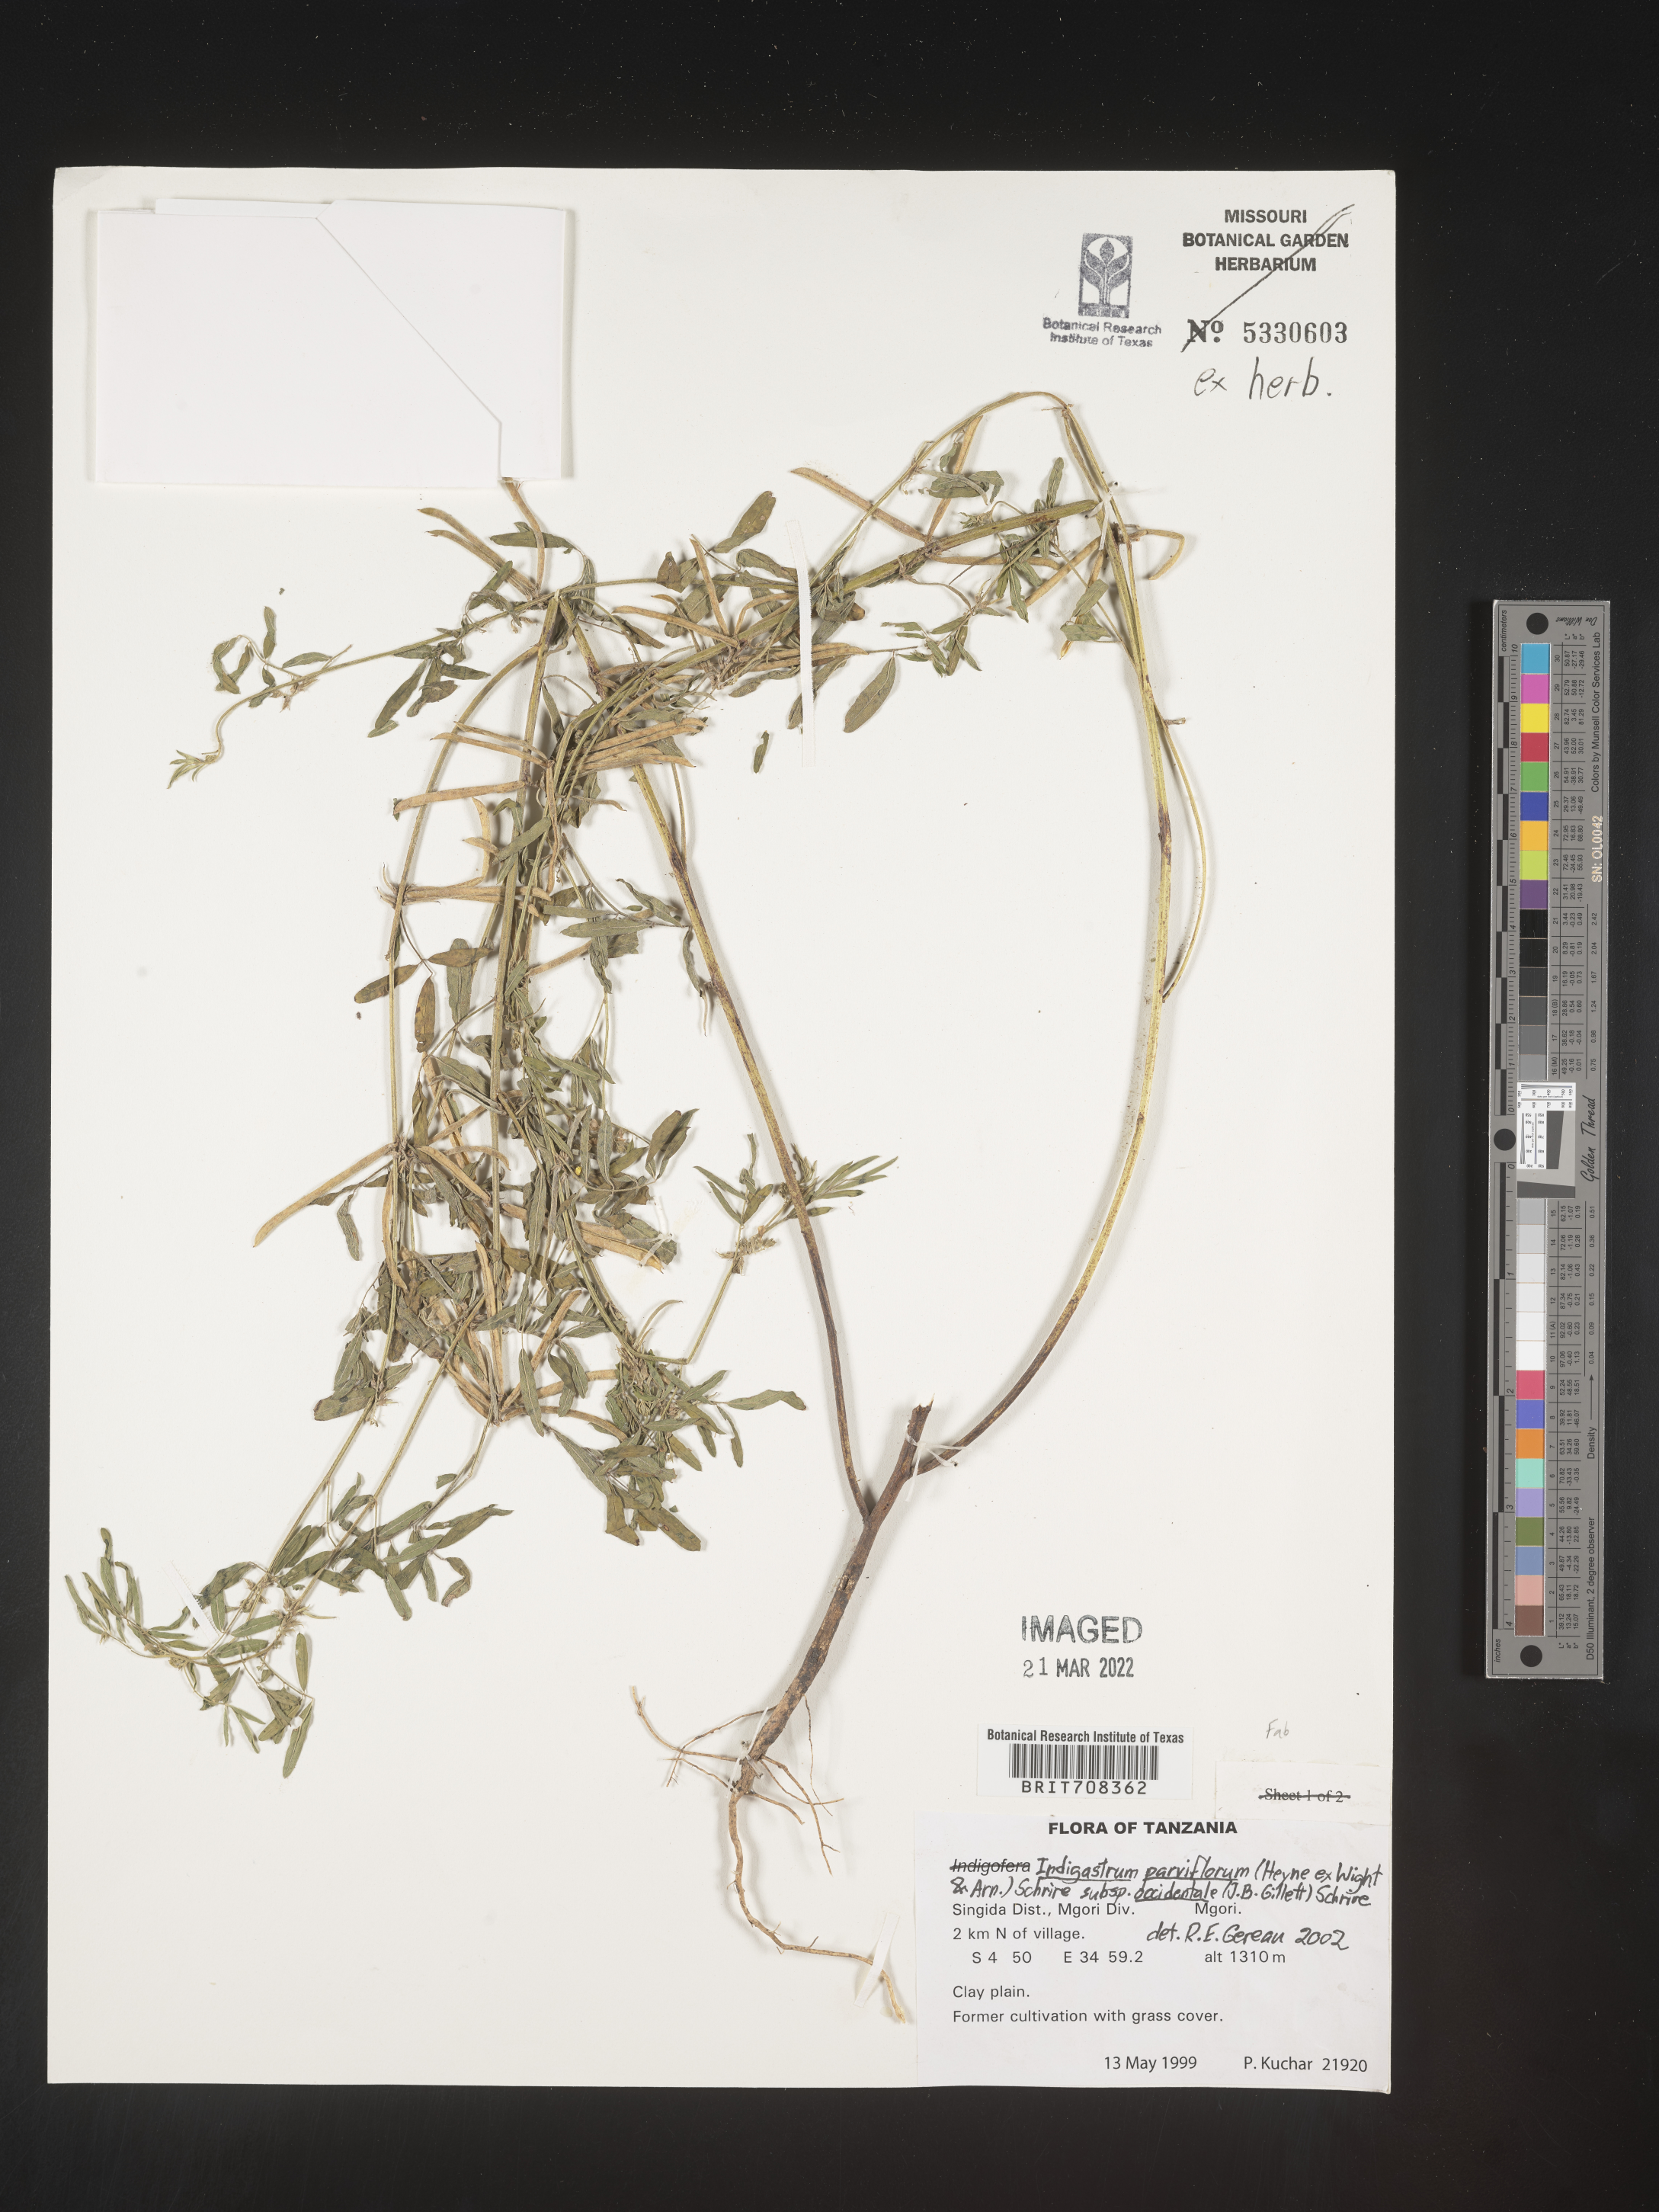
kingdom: Plantae
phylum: Tracheophyta
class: Magnoliopsida
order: Fabales
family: Fabaceae
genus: Indigastrum
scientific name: Indigastrum
